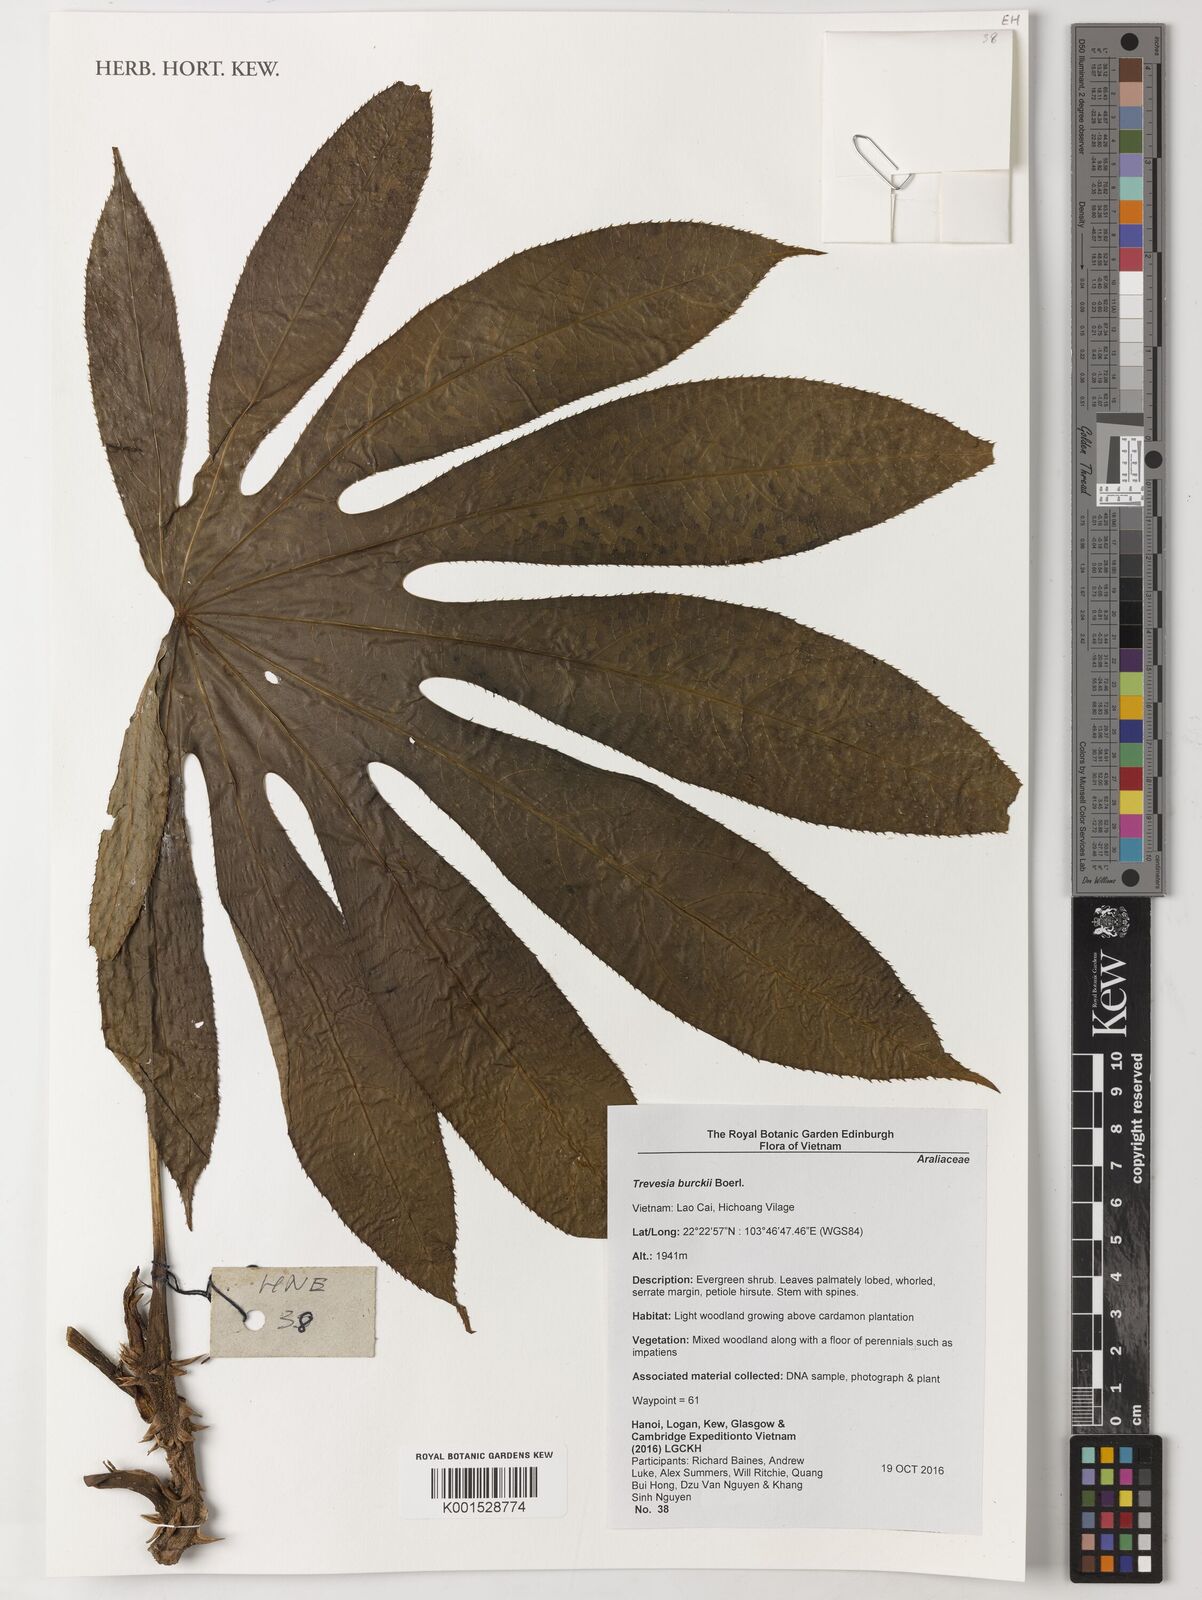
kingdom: Plantae
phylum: Tracheophyta
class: Magnoliopsida
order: Apiales
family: Araliaceae
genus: Trevesia
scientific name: Trevesia burckii
